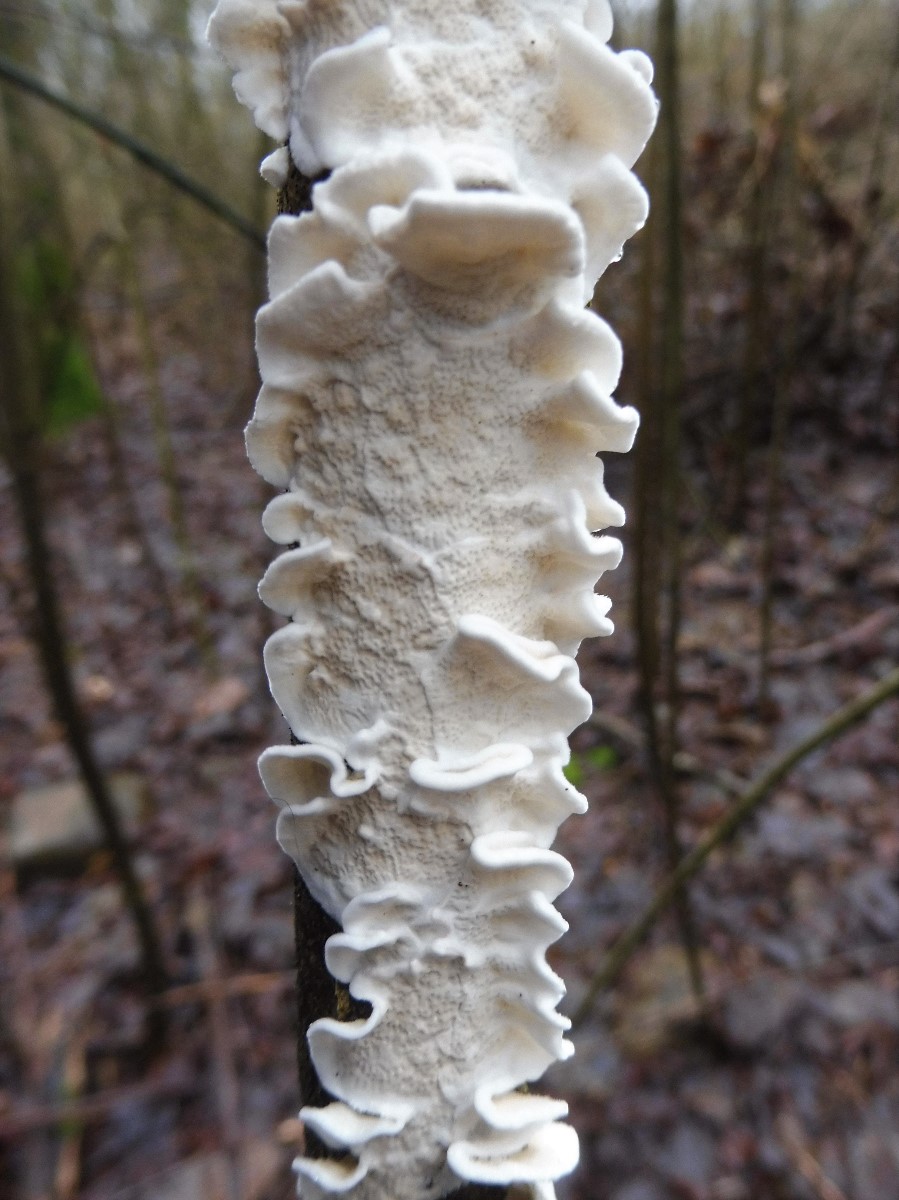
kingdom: Fungi
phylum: Basidiomycota
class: Agaricomycetes
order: Polyporales
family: Irpicaceae
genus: Byssomerulius
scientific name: Byssomerulius corium
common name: læder-åresvamp
